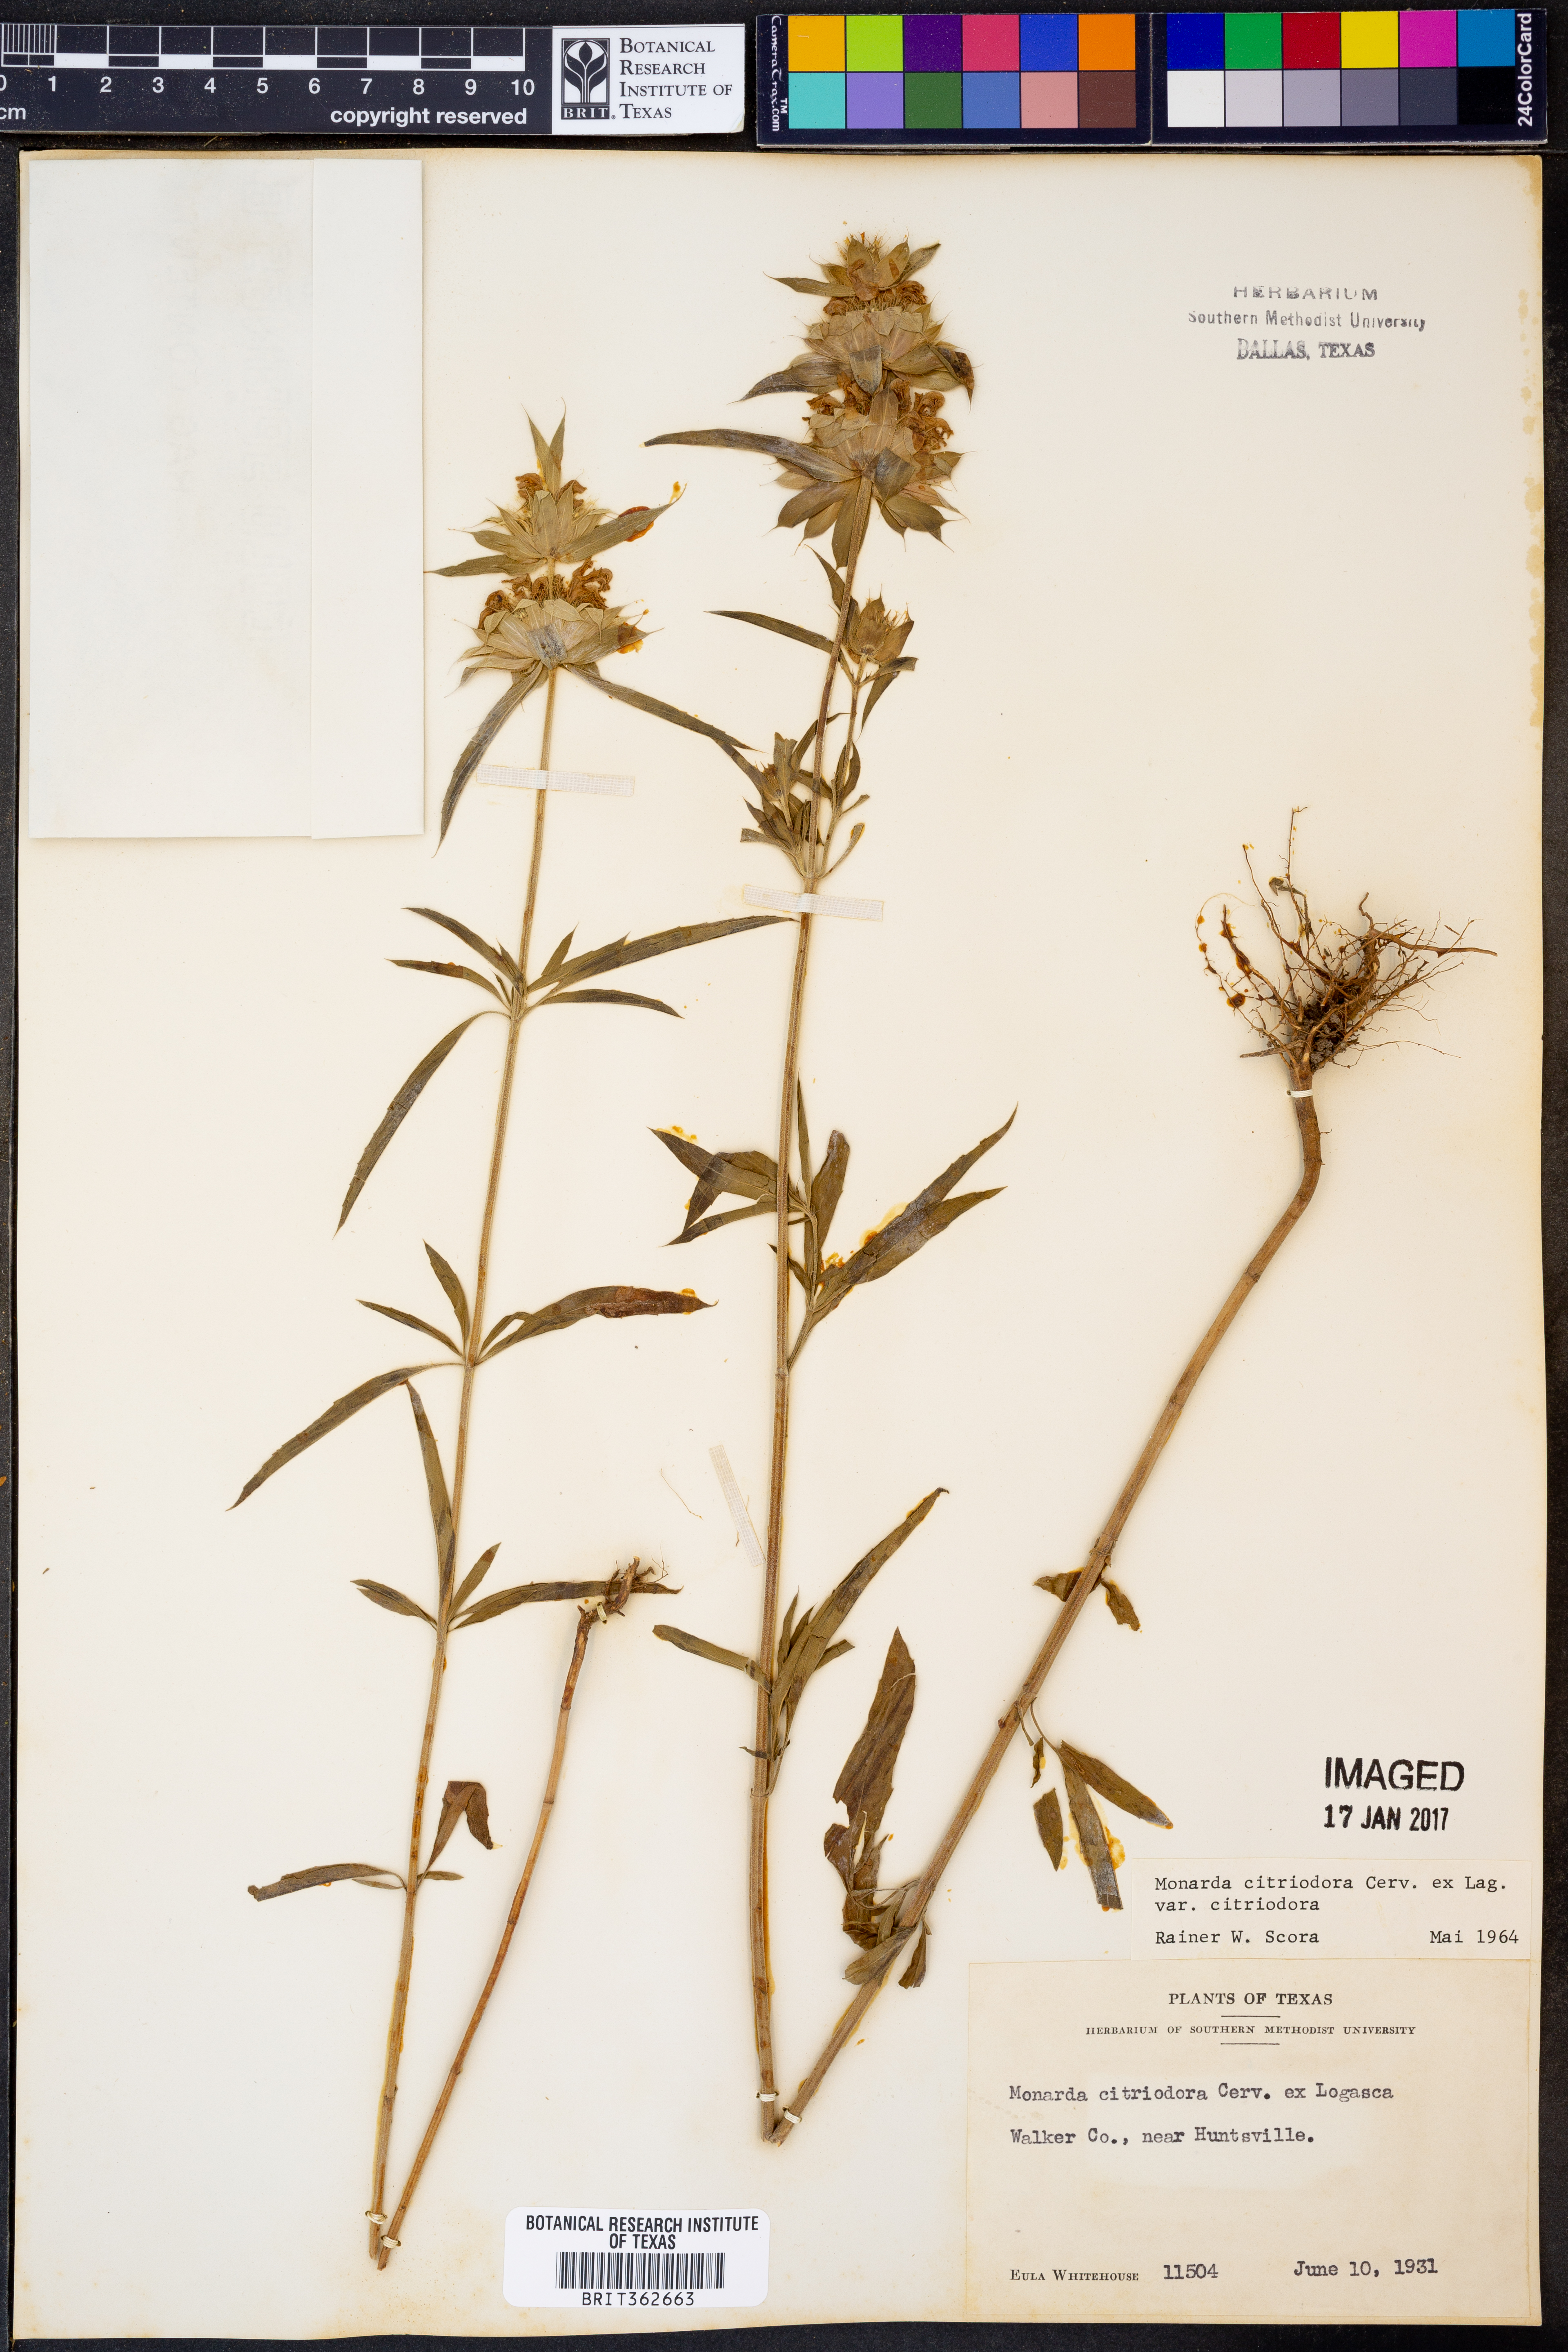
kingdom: Plantae
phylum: Tracheophyta
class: Magnoliopsida
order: Lamiales
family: Lamiaceae
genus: Monarda
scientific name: Monarda citriodora
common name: Lemon beebalm
